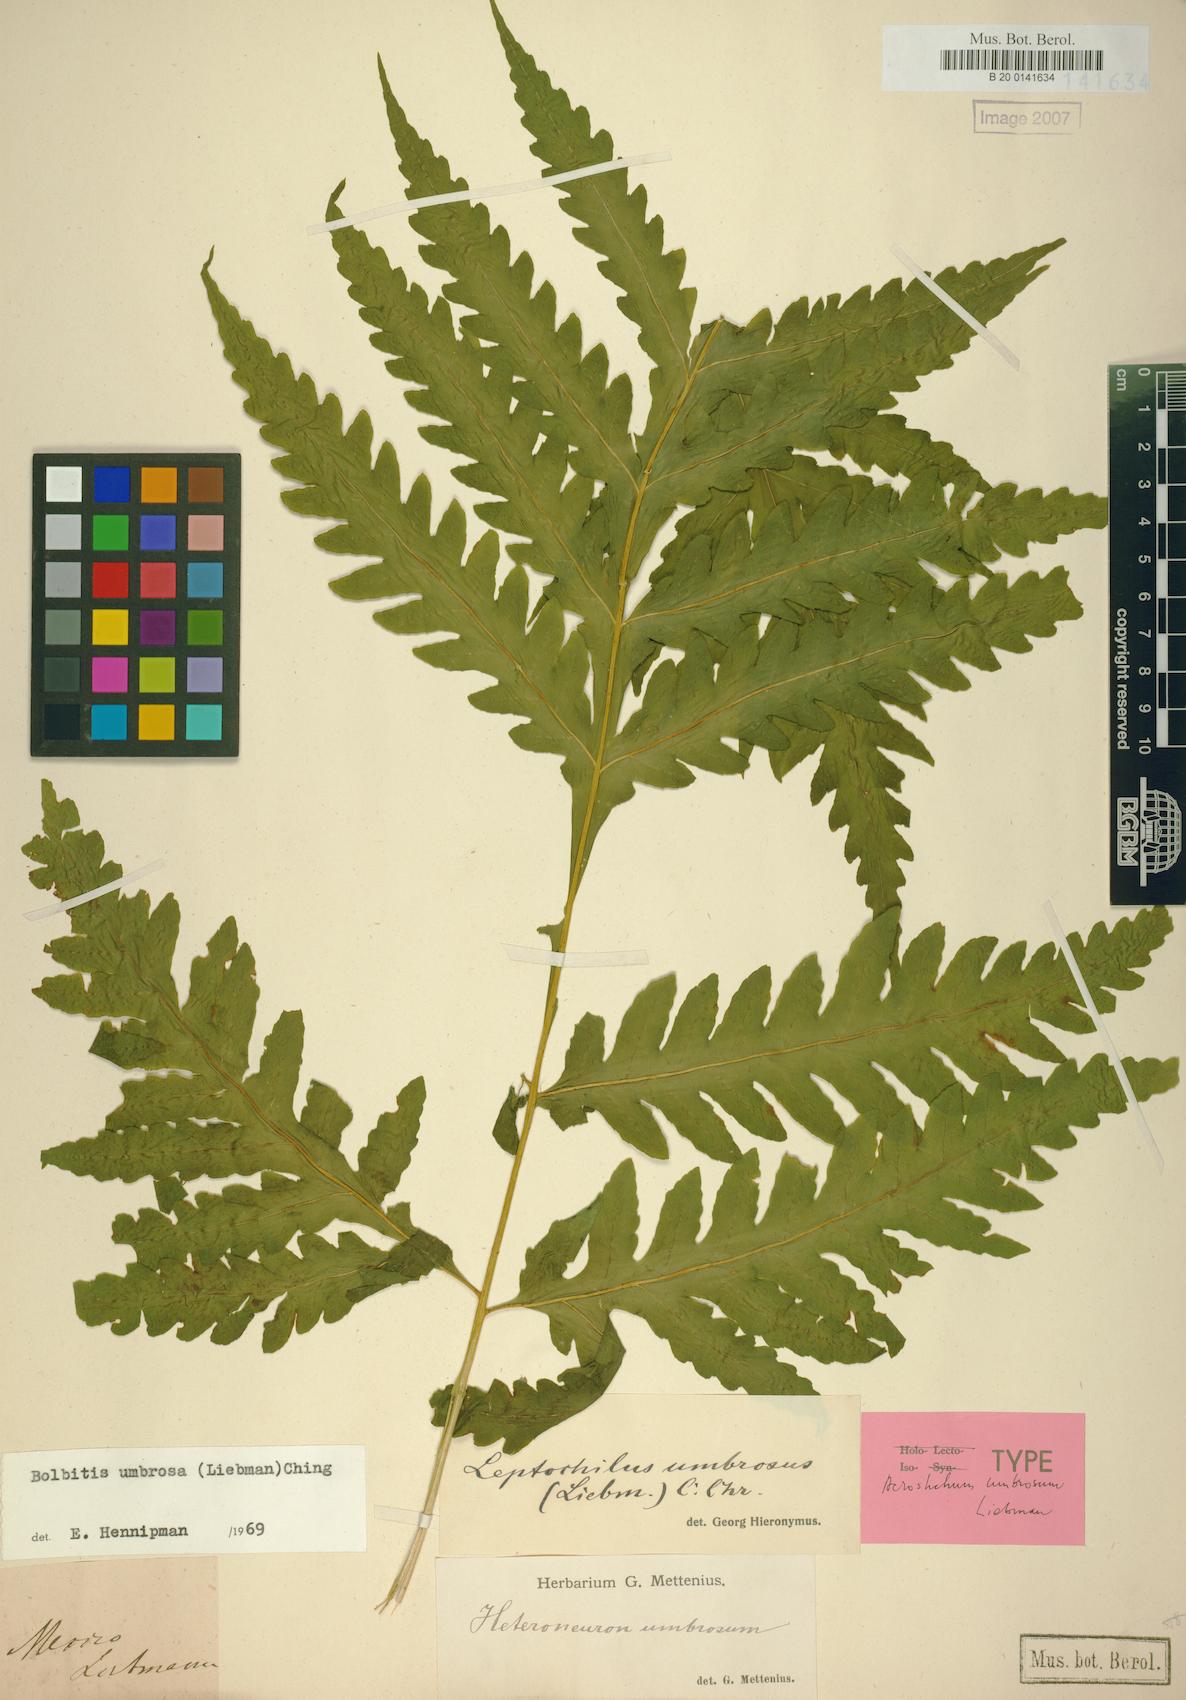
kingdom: Plantae
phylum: Tracheophyta
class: Polypodiopsida
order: Polypodiales
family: Dryopteridaceae
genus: Bolbitis
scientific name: Bolbitis umbrosa
